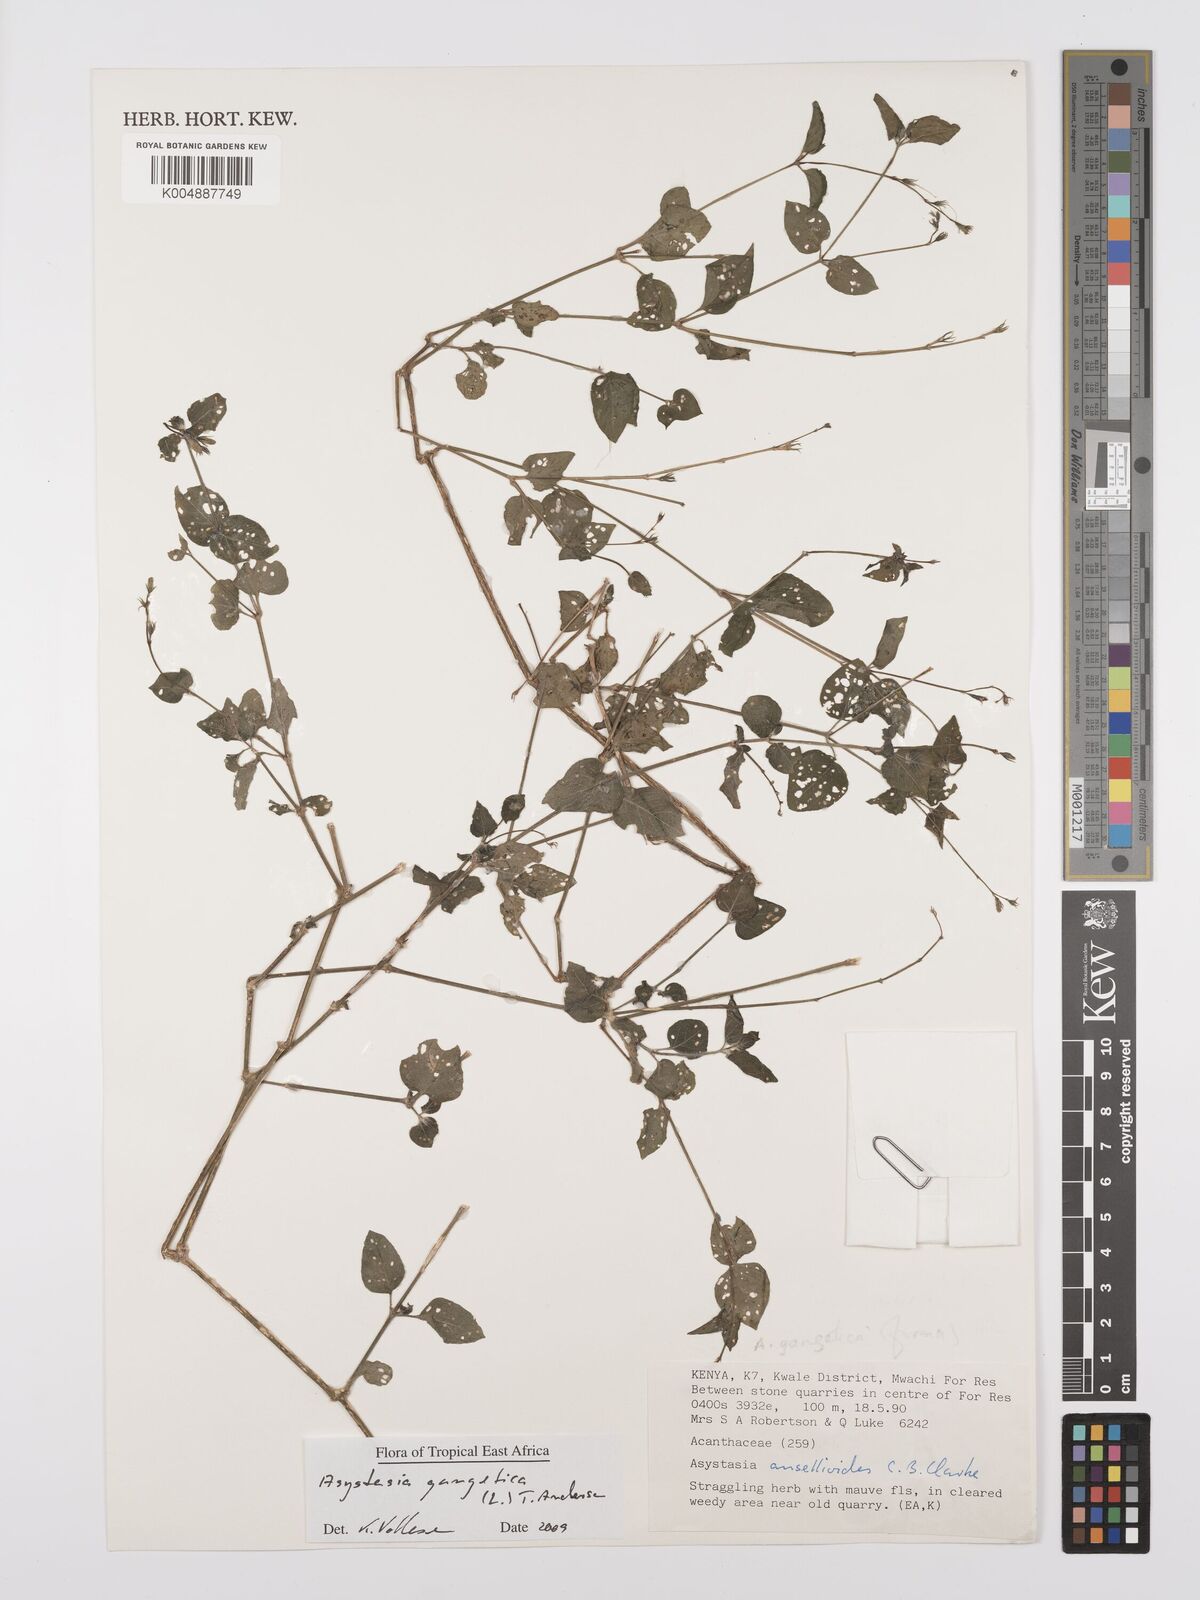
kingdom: Plantae
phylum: Tracheophyta
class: Magnoliopsida
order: Lamiales
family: Acanthaceae
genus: Asystasia
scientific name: Asystasia gangetica
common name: Chinese violet
